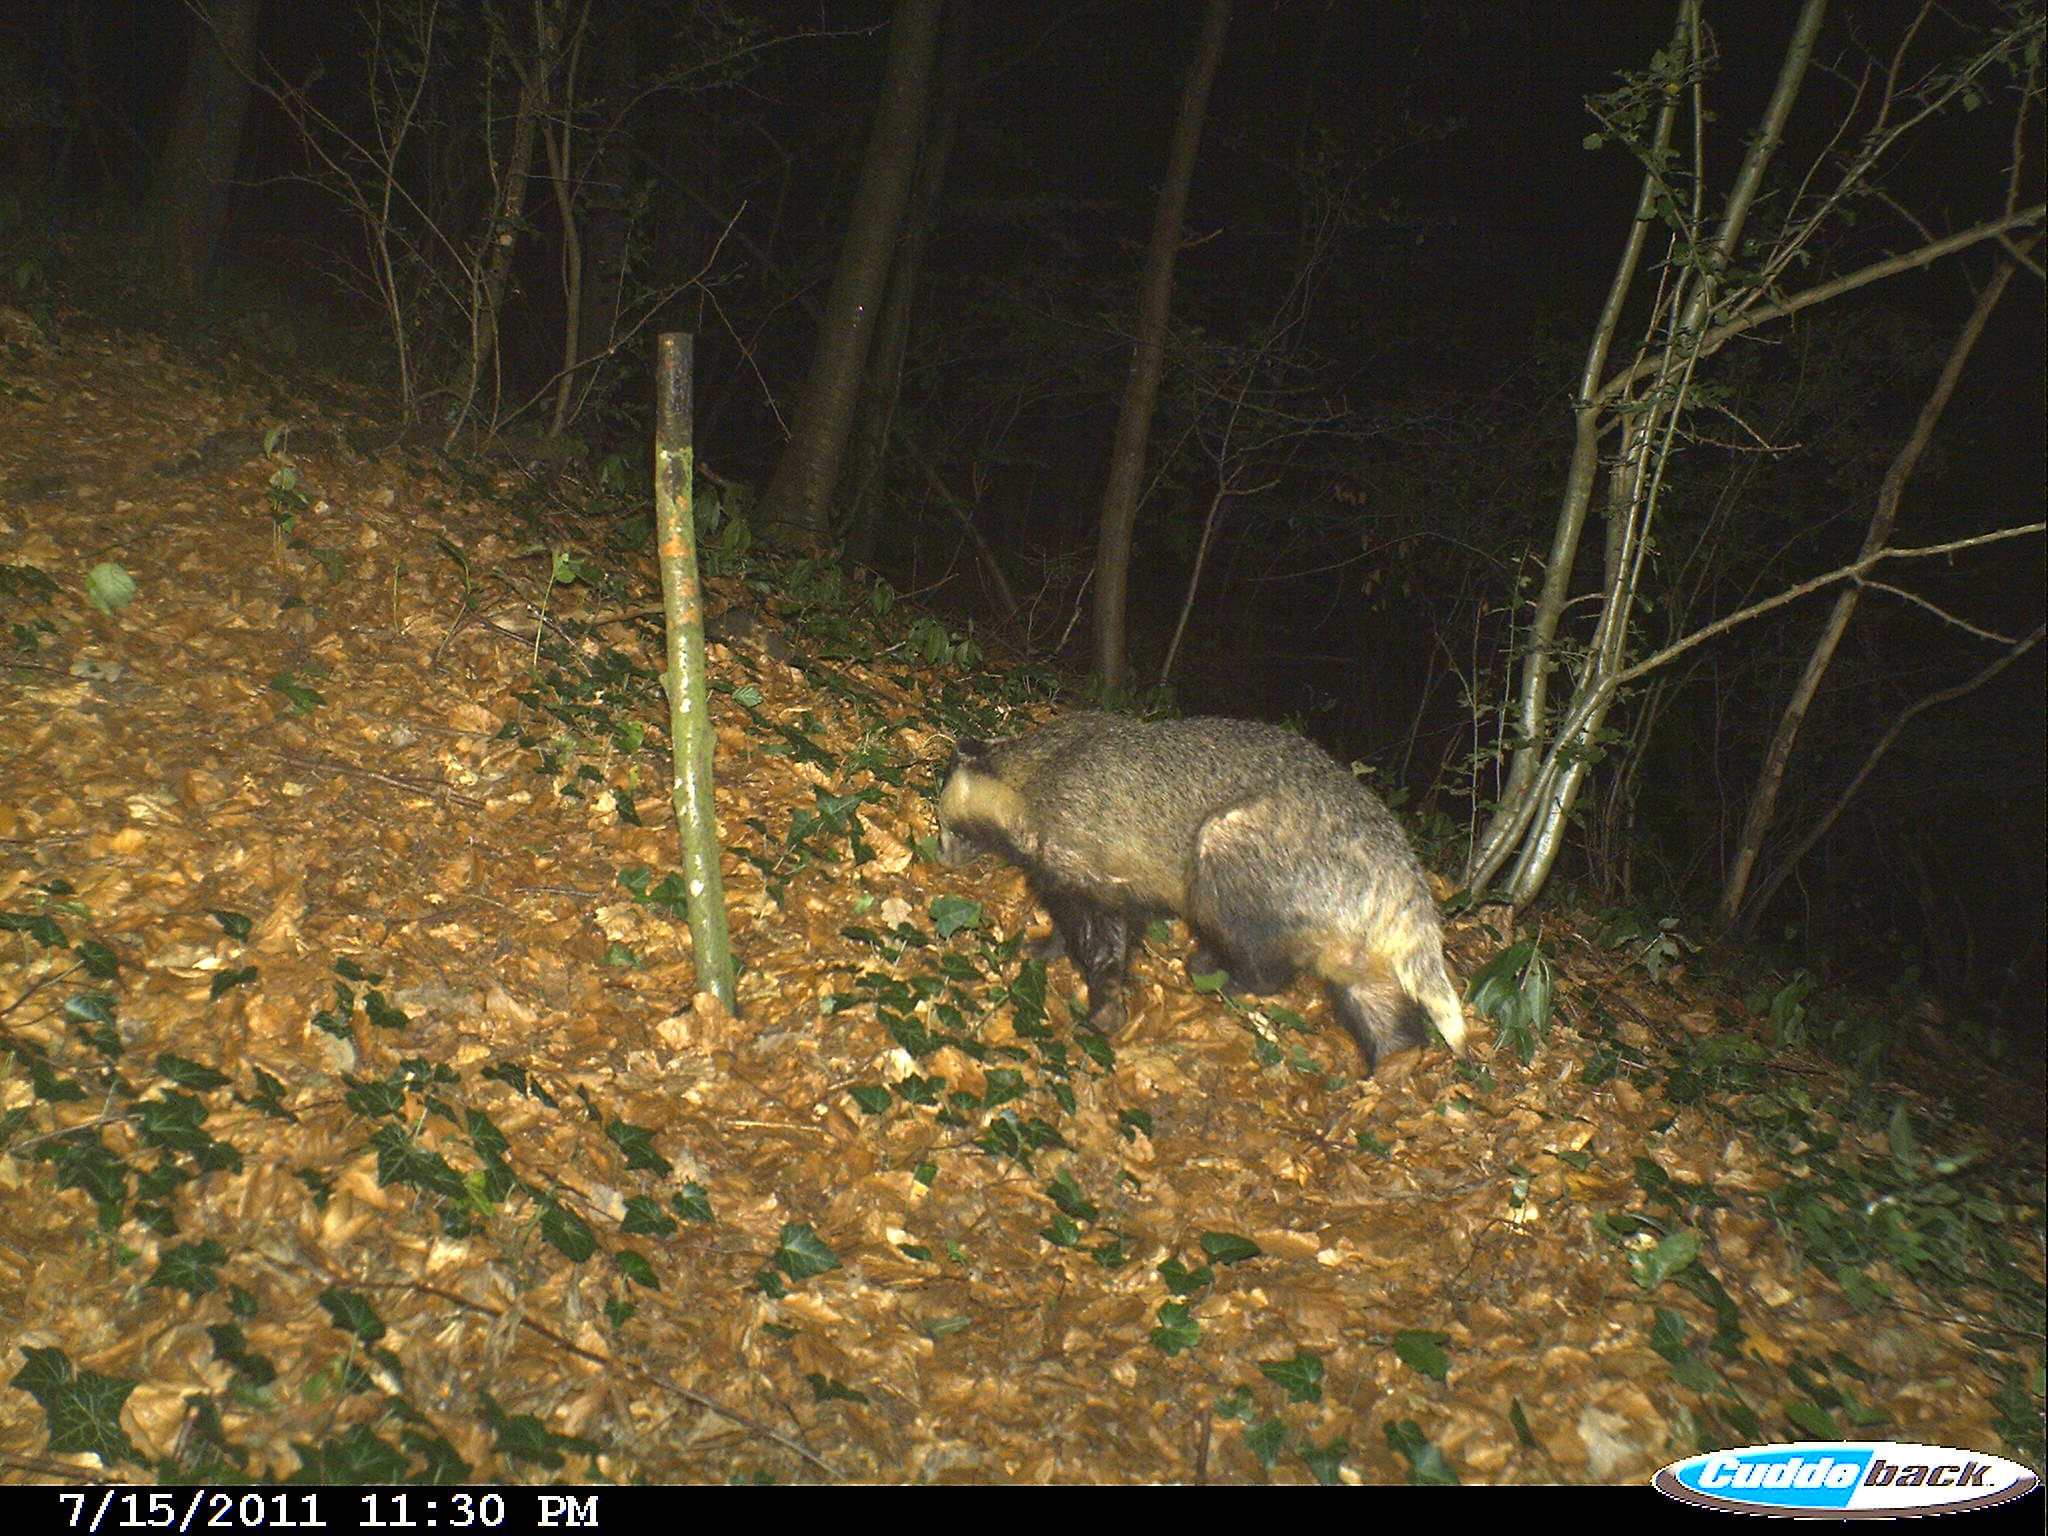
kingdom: Animalia
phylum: Chordata
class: Mammalia
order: Carnivora
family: Mustelidae
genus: Meles
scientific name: Meles meles
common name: Eurasian badger
